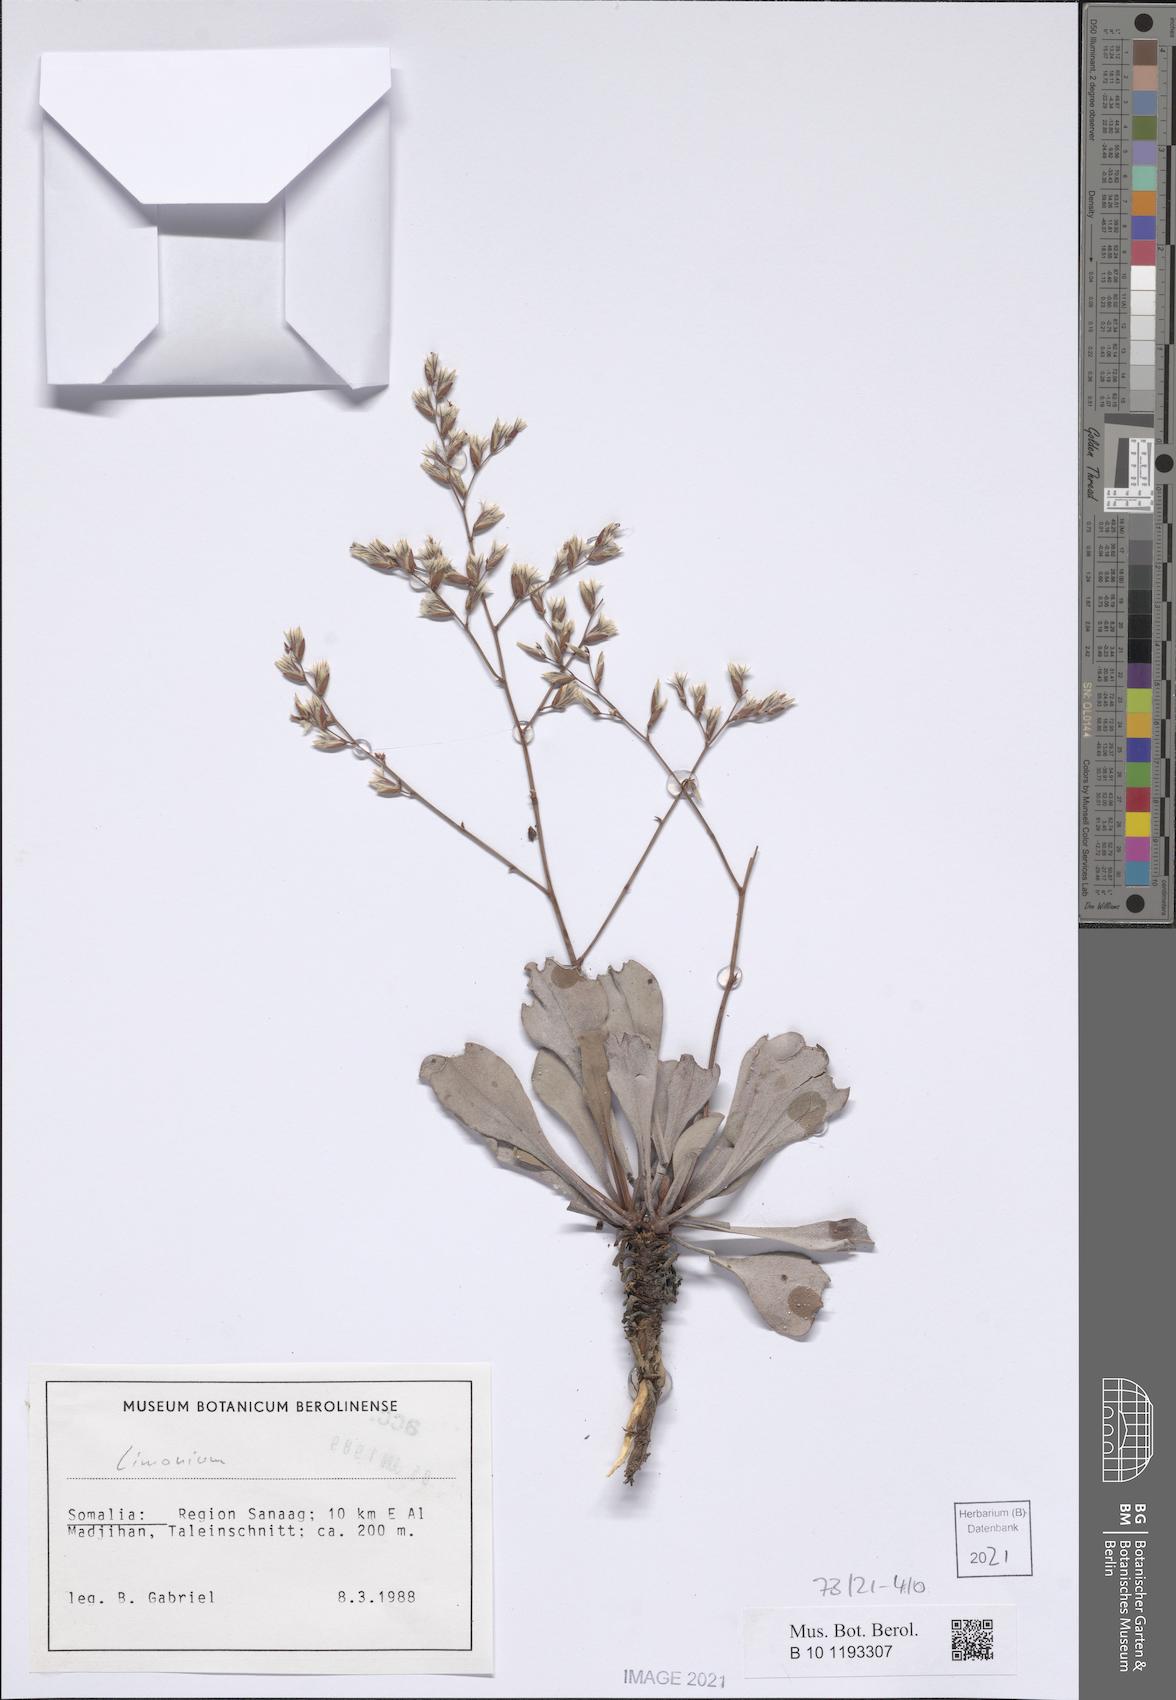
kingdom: Plantae
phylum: Tracheophyta
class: Magnoliopsida
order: Caryophyllales
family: Plumbaginaceae
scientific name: Plumbaginaceae
